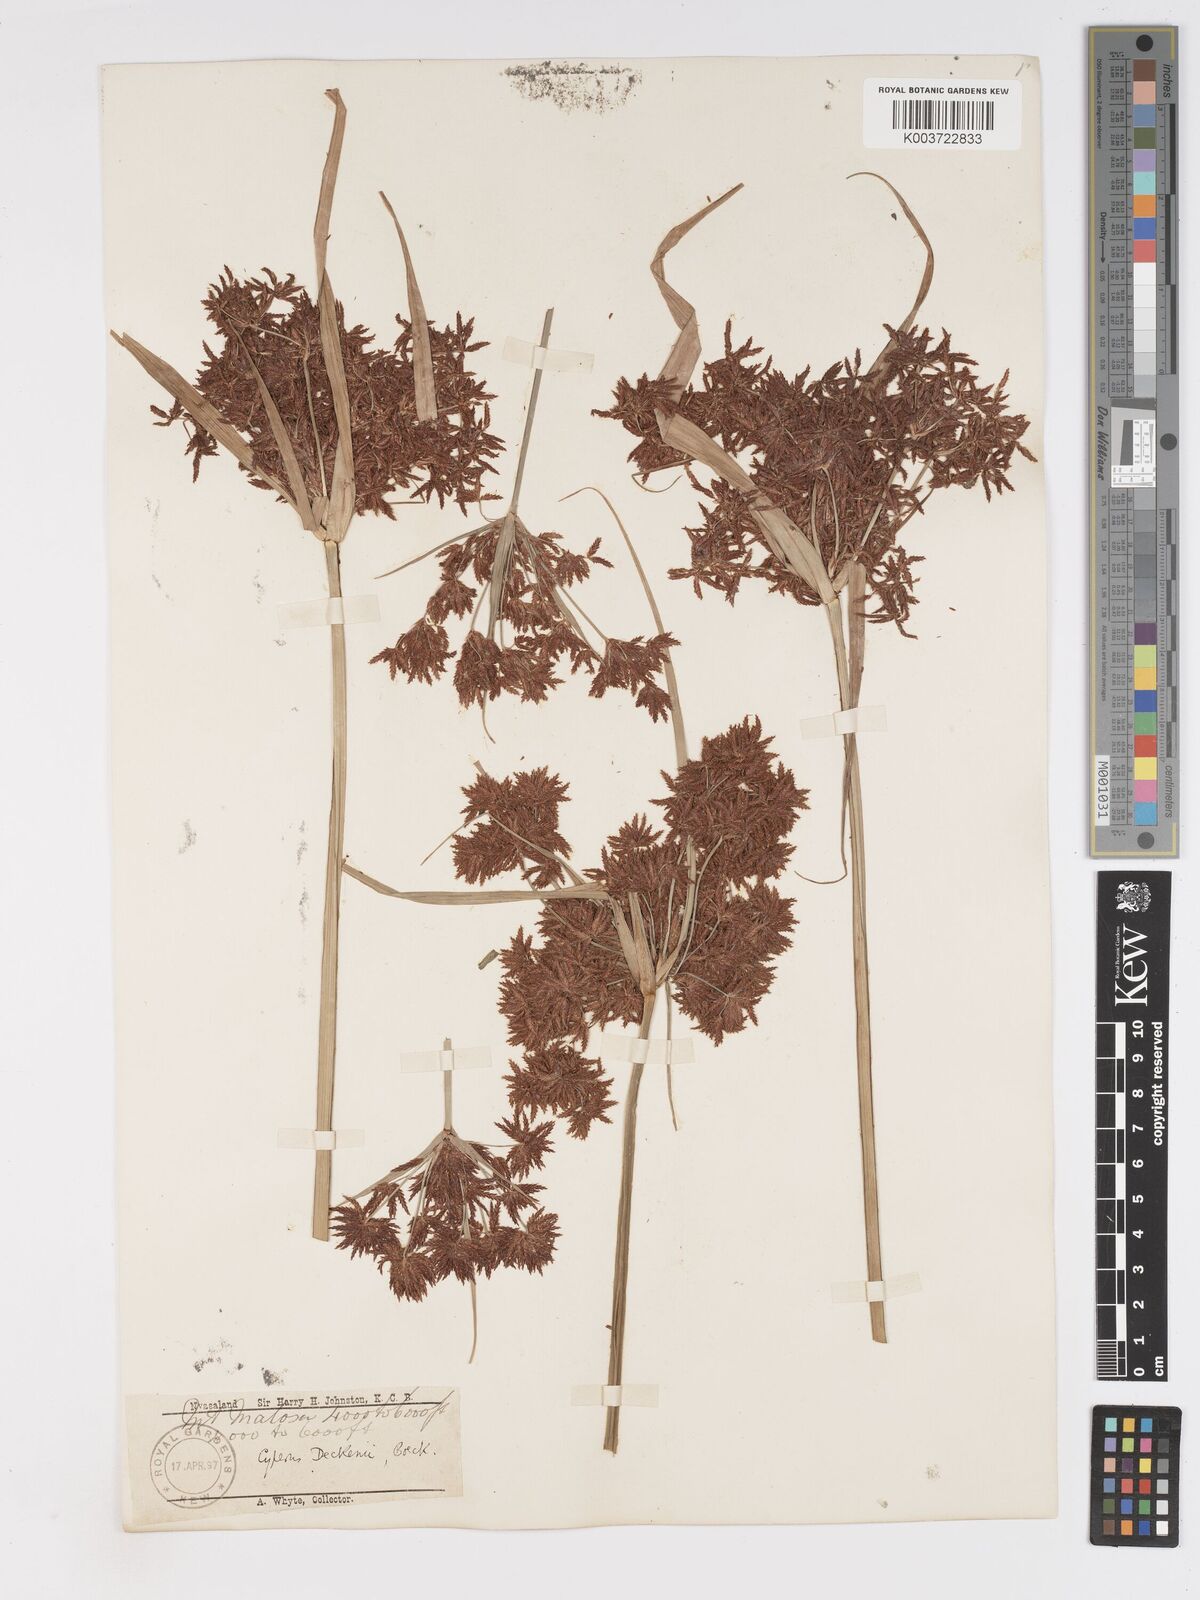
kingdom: Plantae
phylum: Tracheophyta
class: Liliopsida
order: Poales
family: Cyperaceae
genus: Cyperus
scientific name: Cyperus baronii
